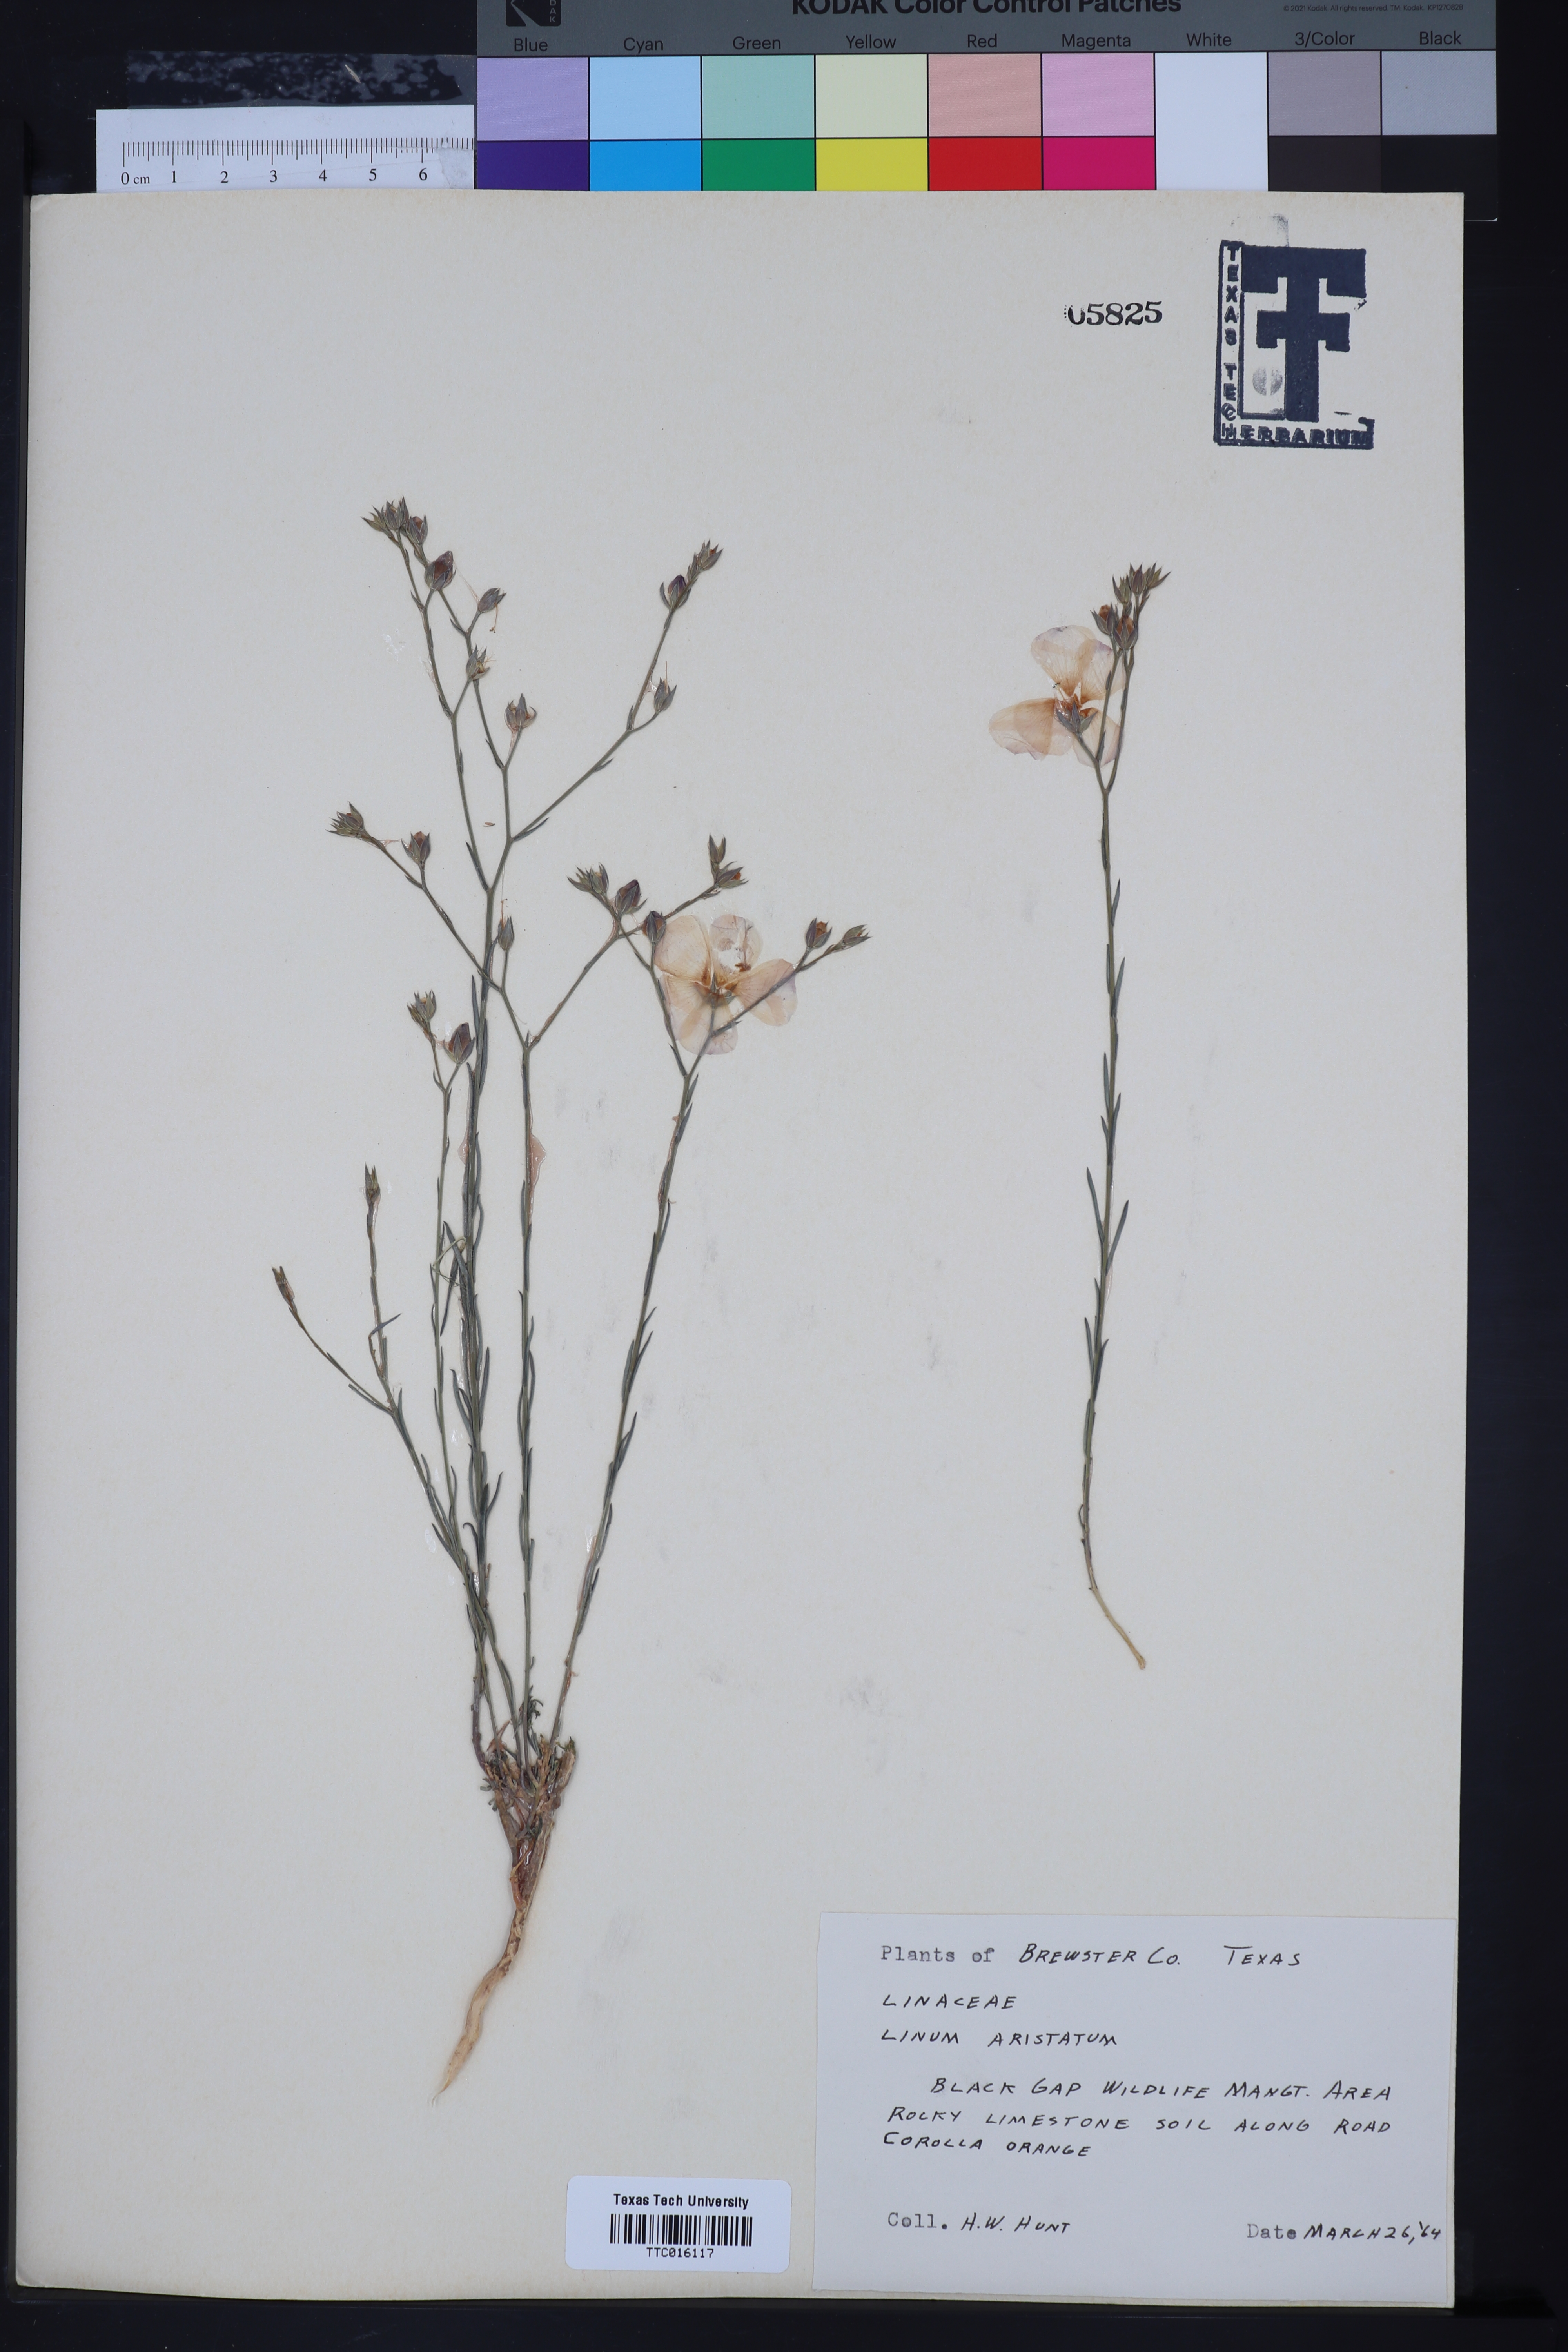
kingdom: Plantae
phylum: Tracheophyta
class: Magnoliopsida
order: Malpighiales
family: Linaceae
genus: Linum
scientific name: Linum aristatum
